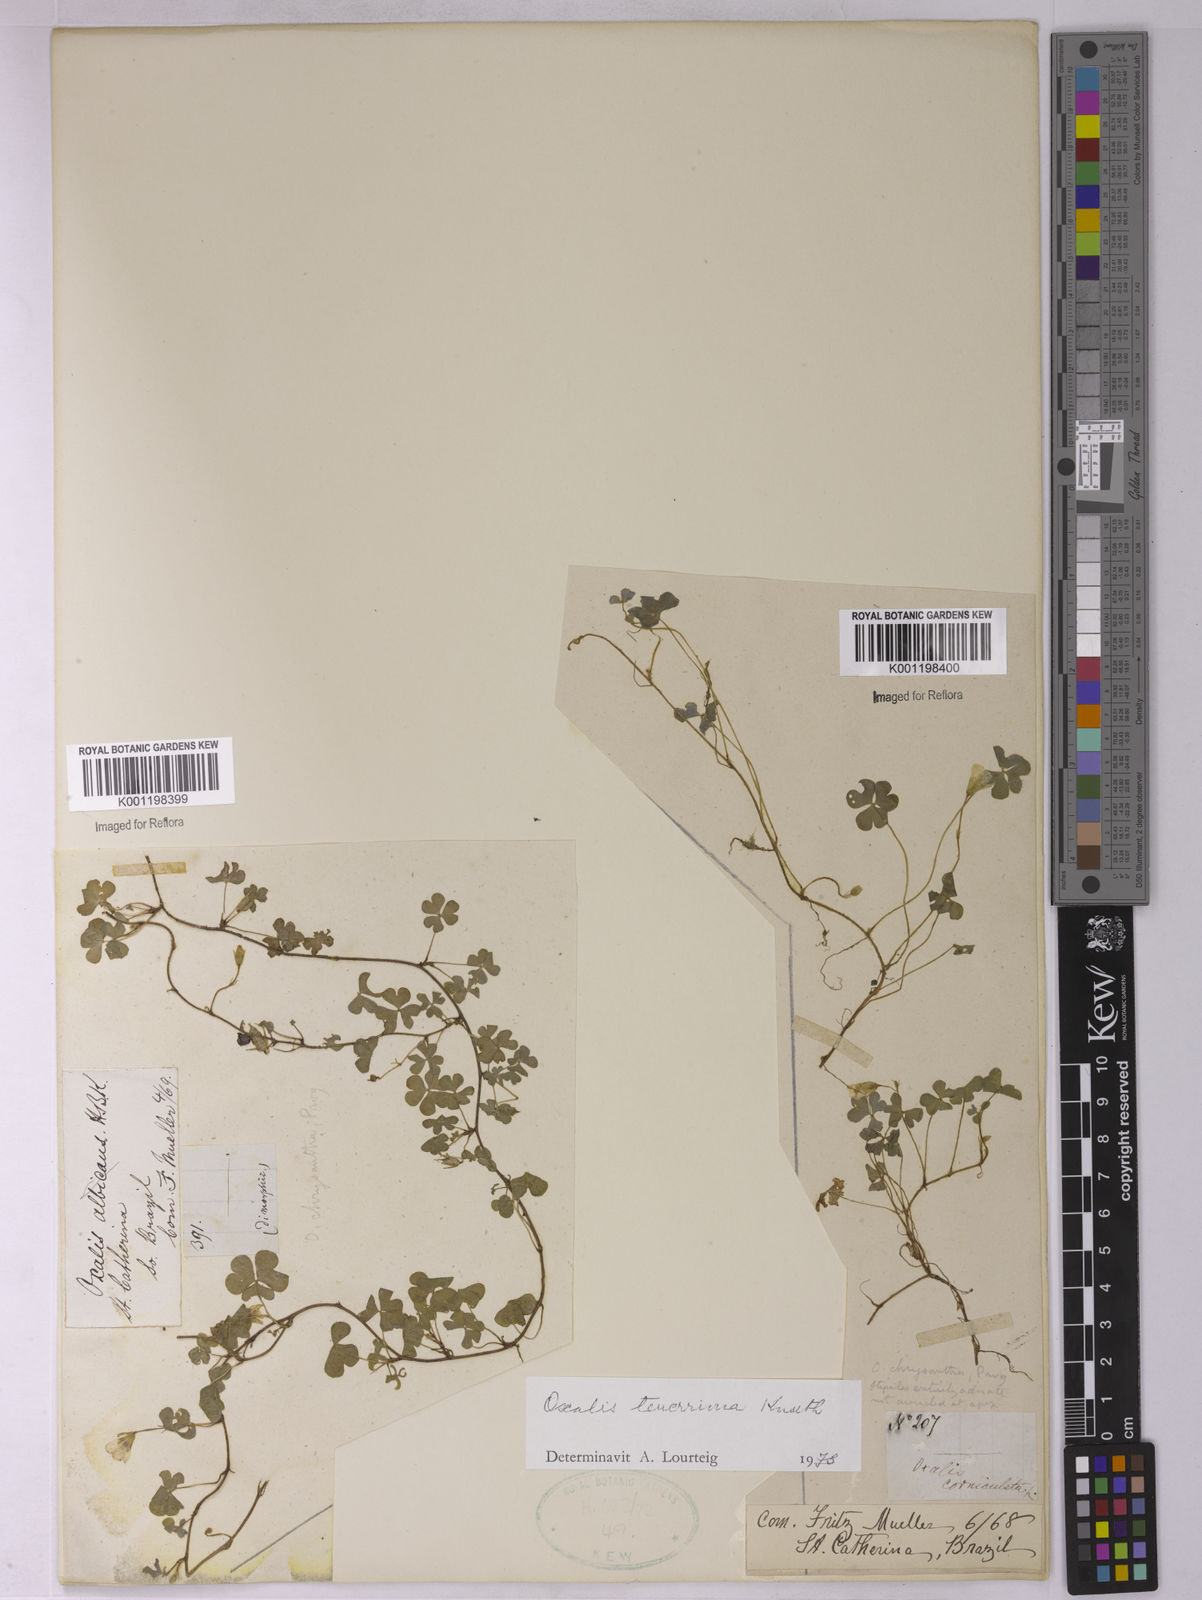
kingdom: Plantae
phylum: Tracheophyta
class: Magnoliopsida
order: Oxalidales
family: Oxalidaceae
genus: Oxalis
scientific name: Oxalis tenerrima
